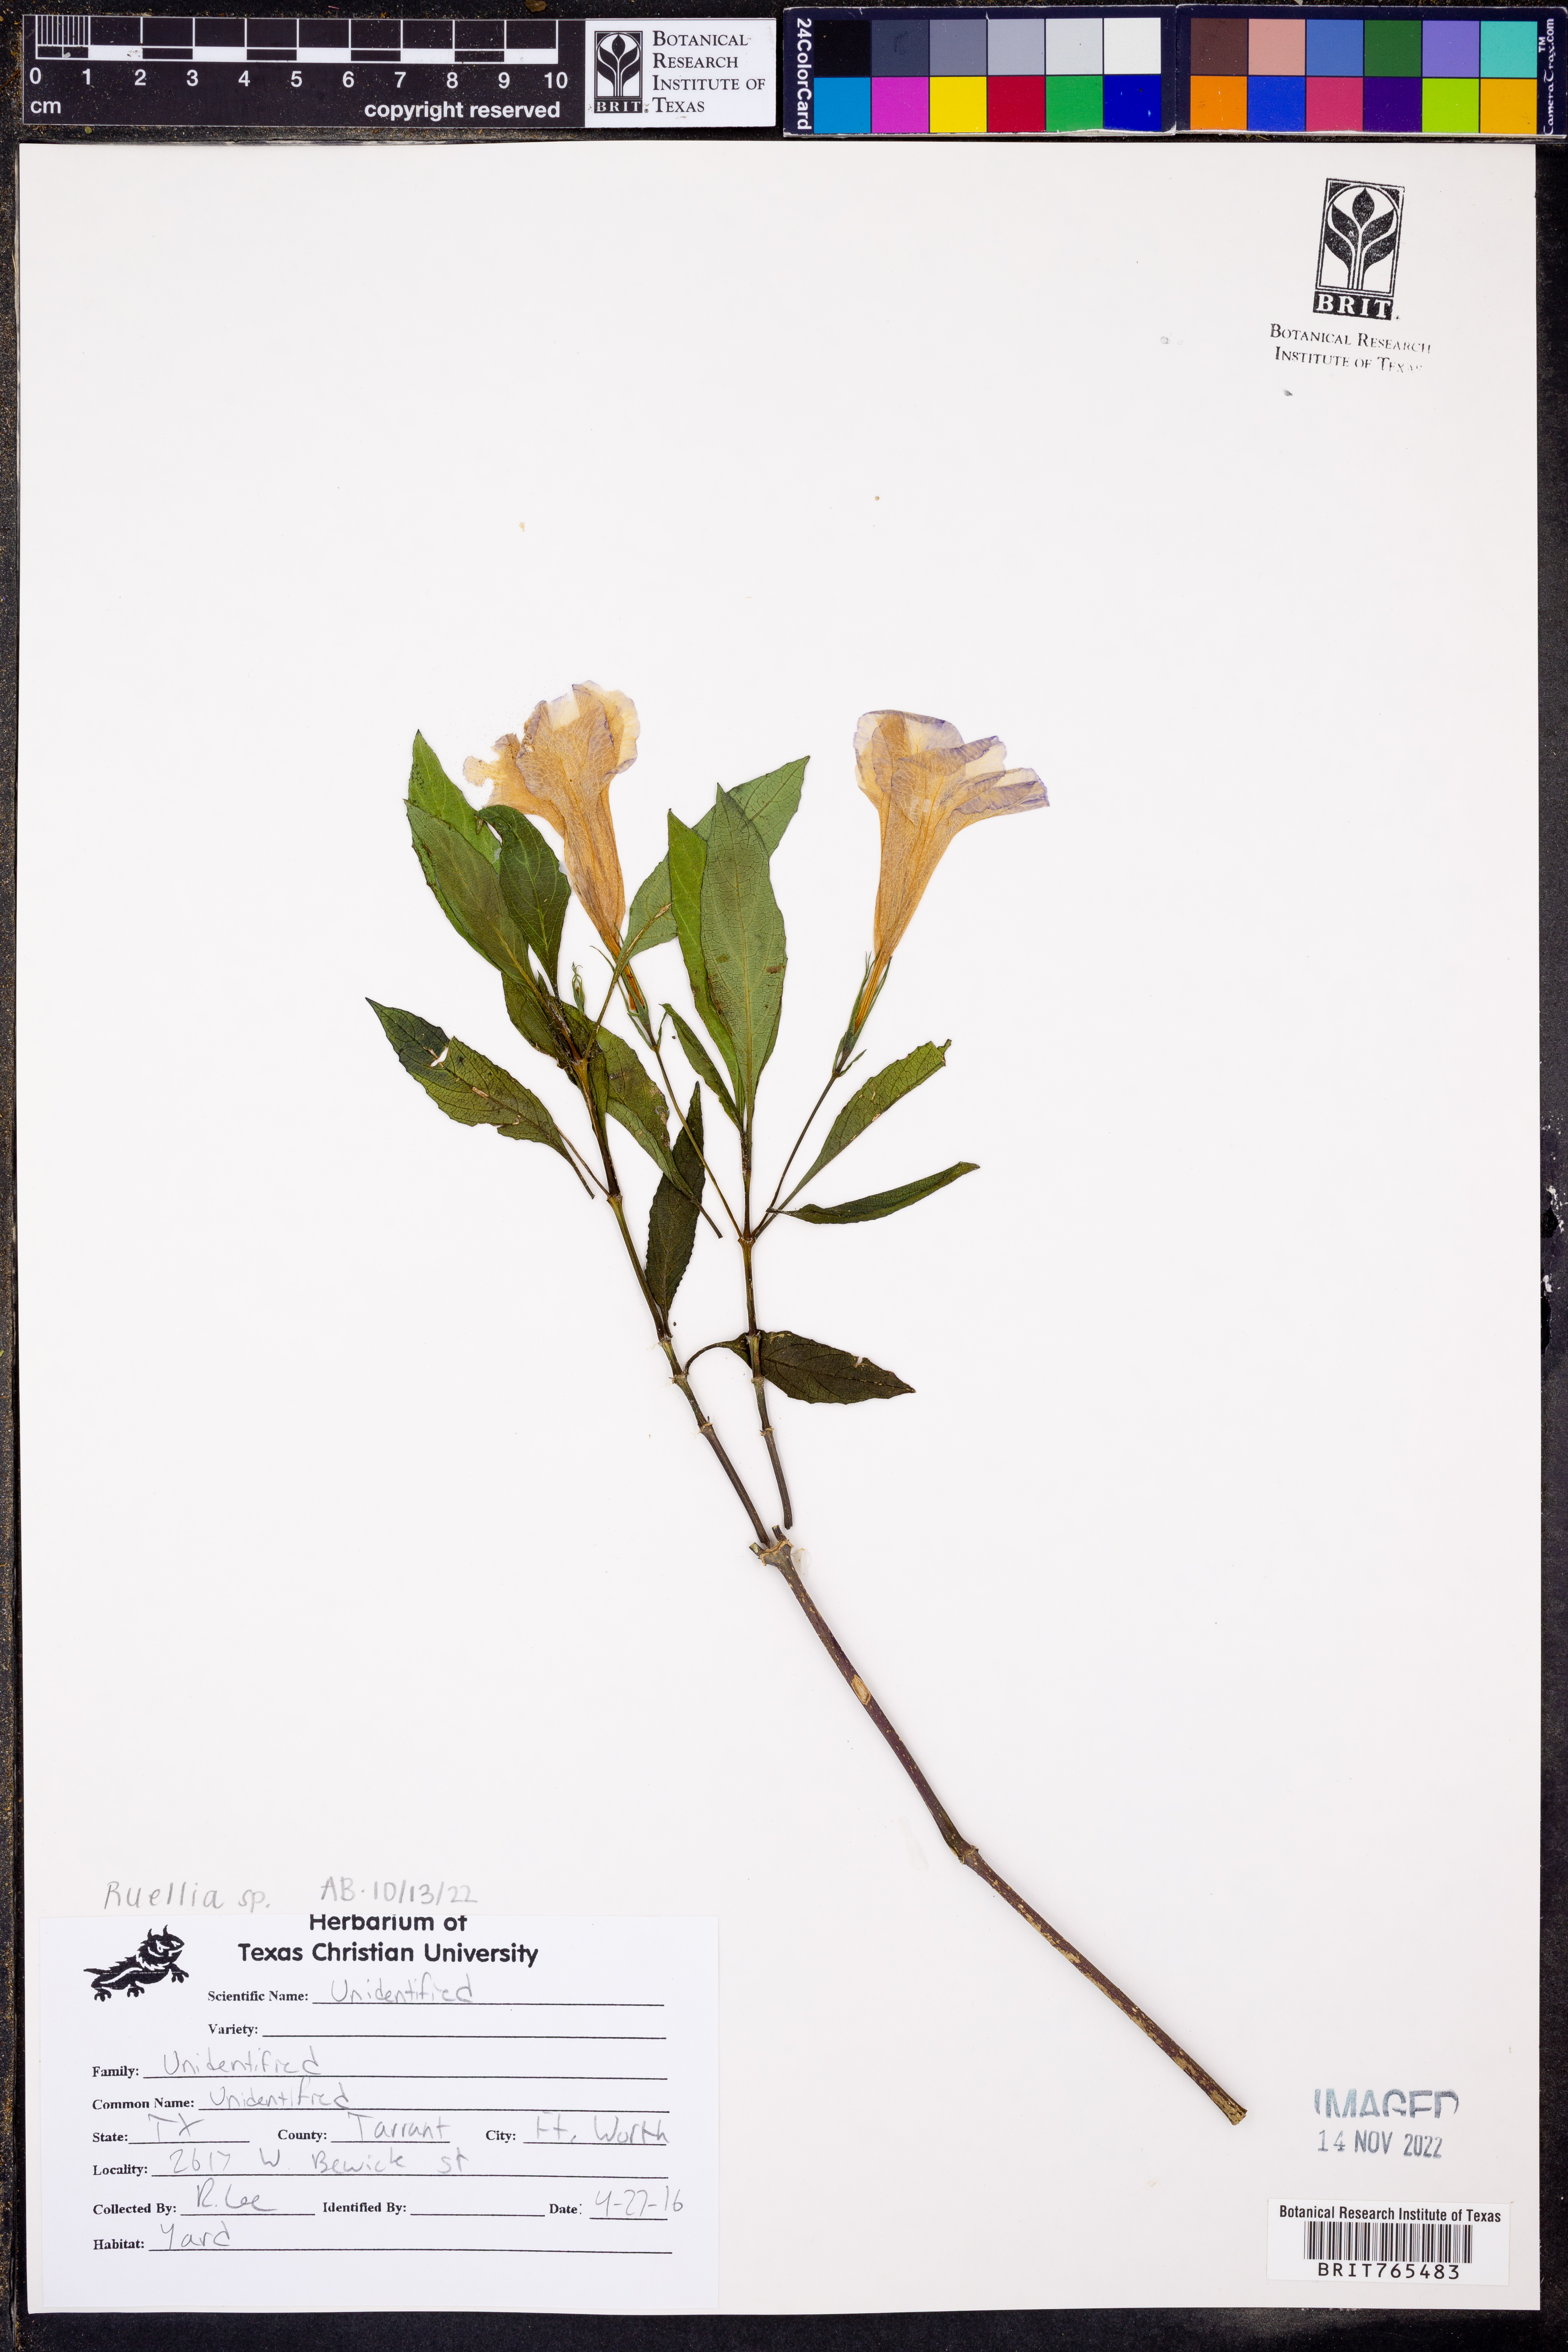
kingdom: Plantae
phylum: Tracheophyta
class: Magnoliopsida
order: Lamiales
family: Acanthaceae
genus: Ruellia
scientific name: Ruellia
